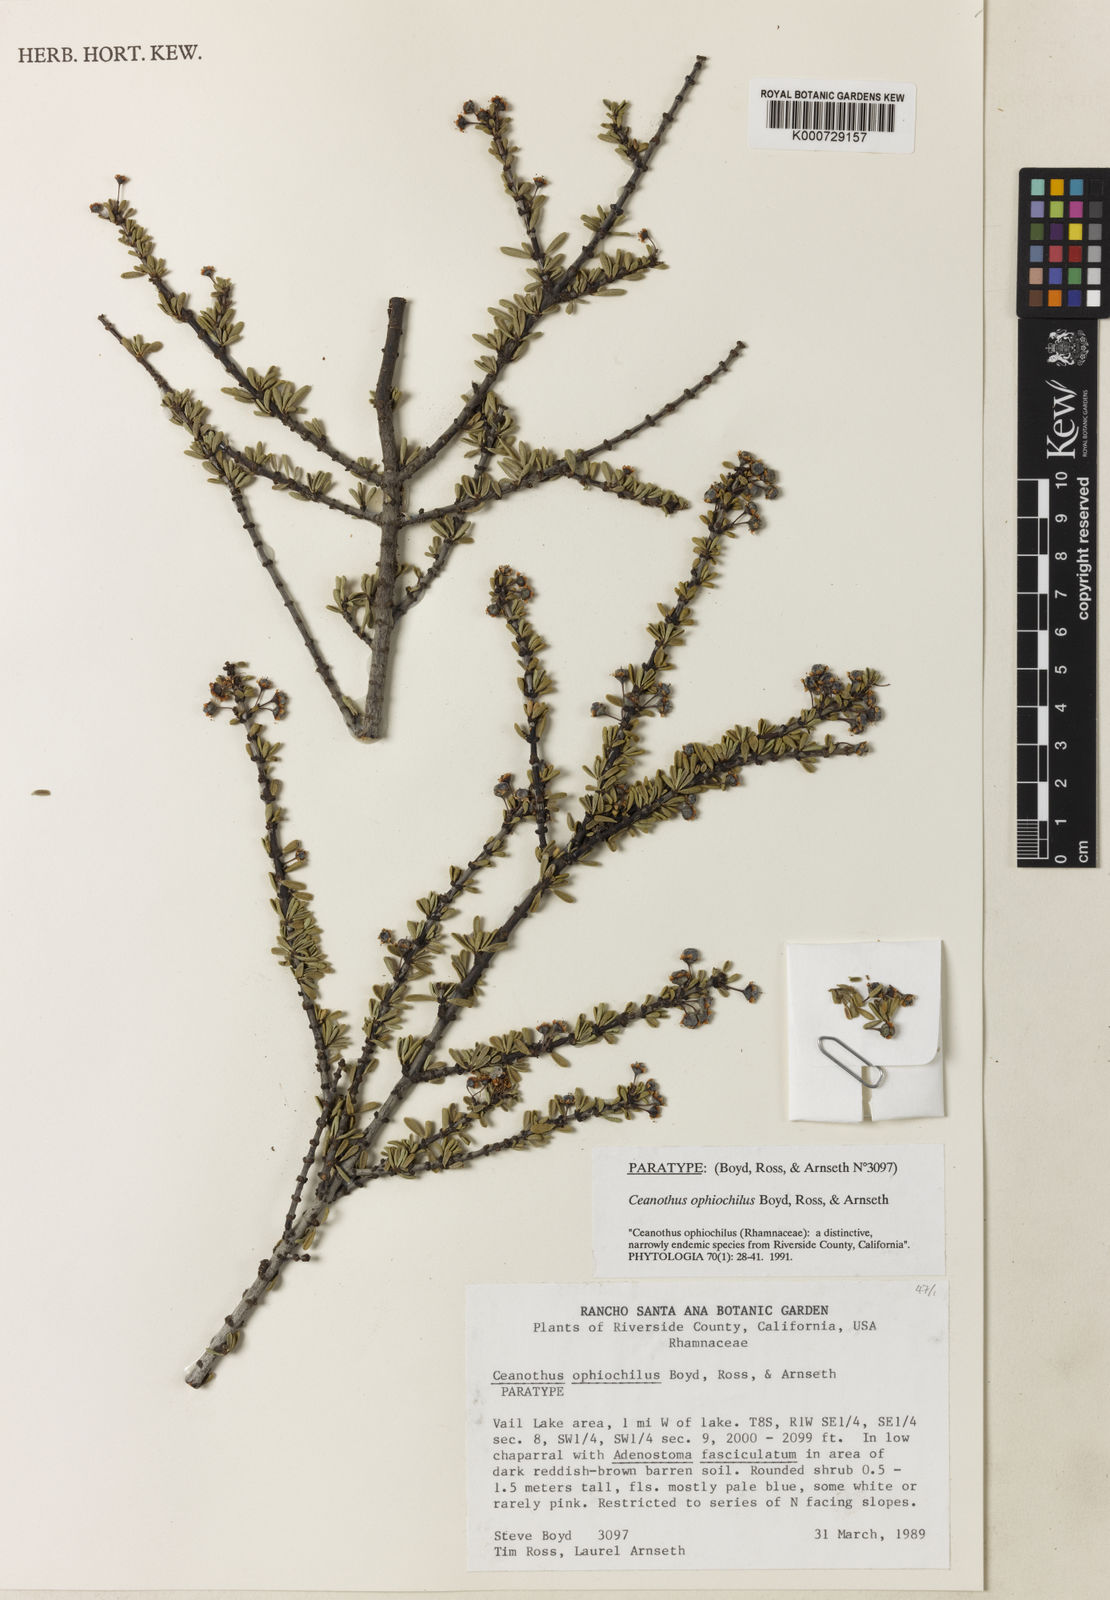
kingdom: Plantae
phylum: Tracheophyta
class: Magnoliopsida
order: Rosales
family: Rhamnaceae
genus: Ceanothus
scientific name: Ceanothus
